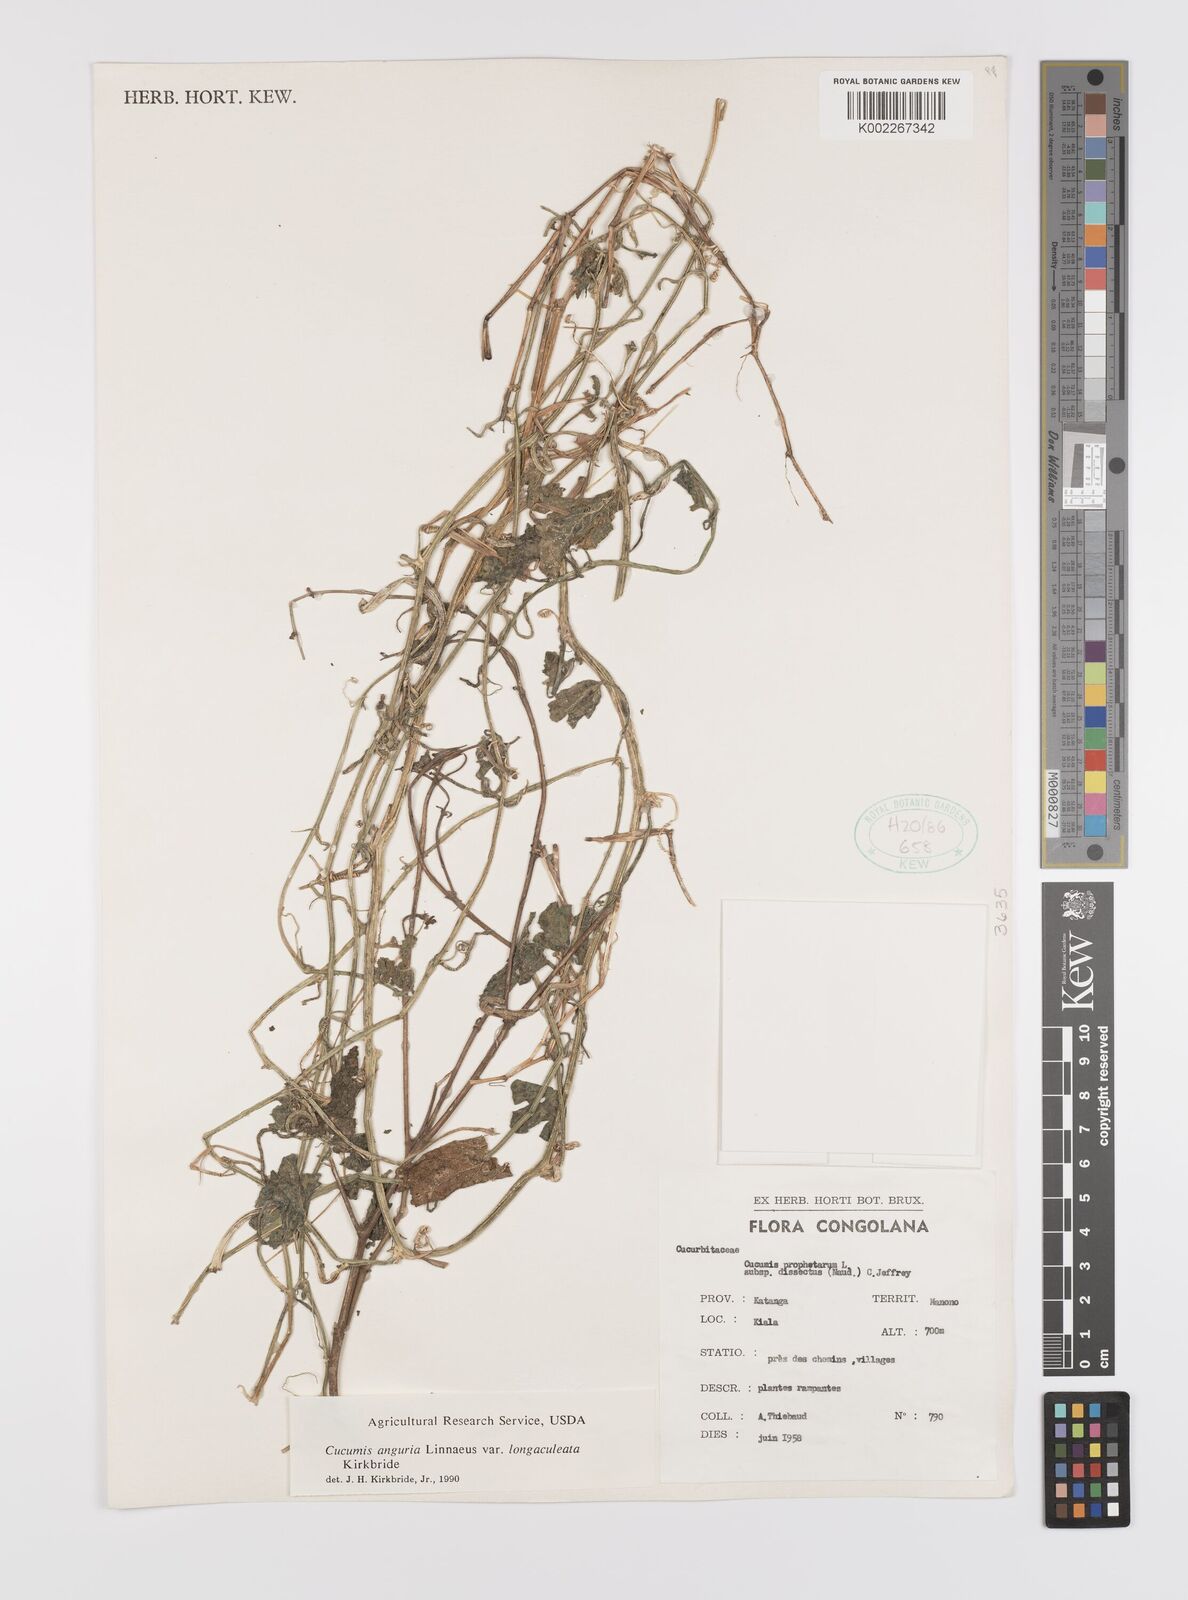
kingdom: Plantae
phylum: Tracheophyta
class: Magnoliopsida
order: Cucurbitales
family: Cucurbitaceae
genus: Cucumis
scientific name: Cucumis anguria
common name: West indian gherkin
